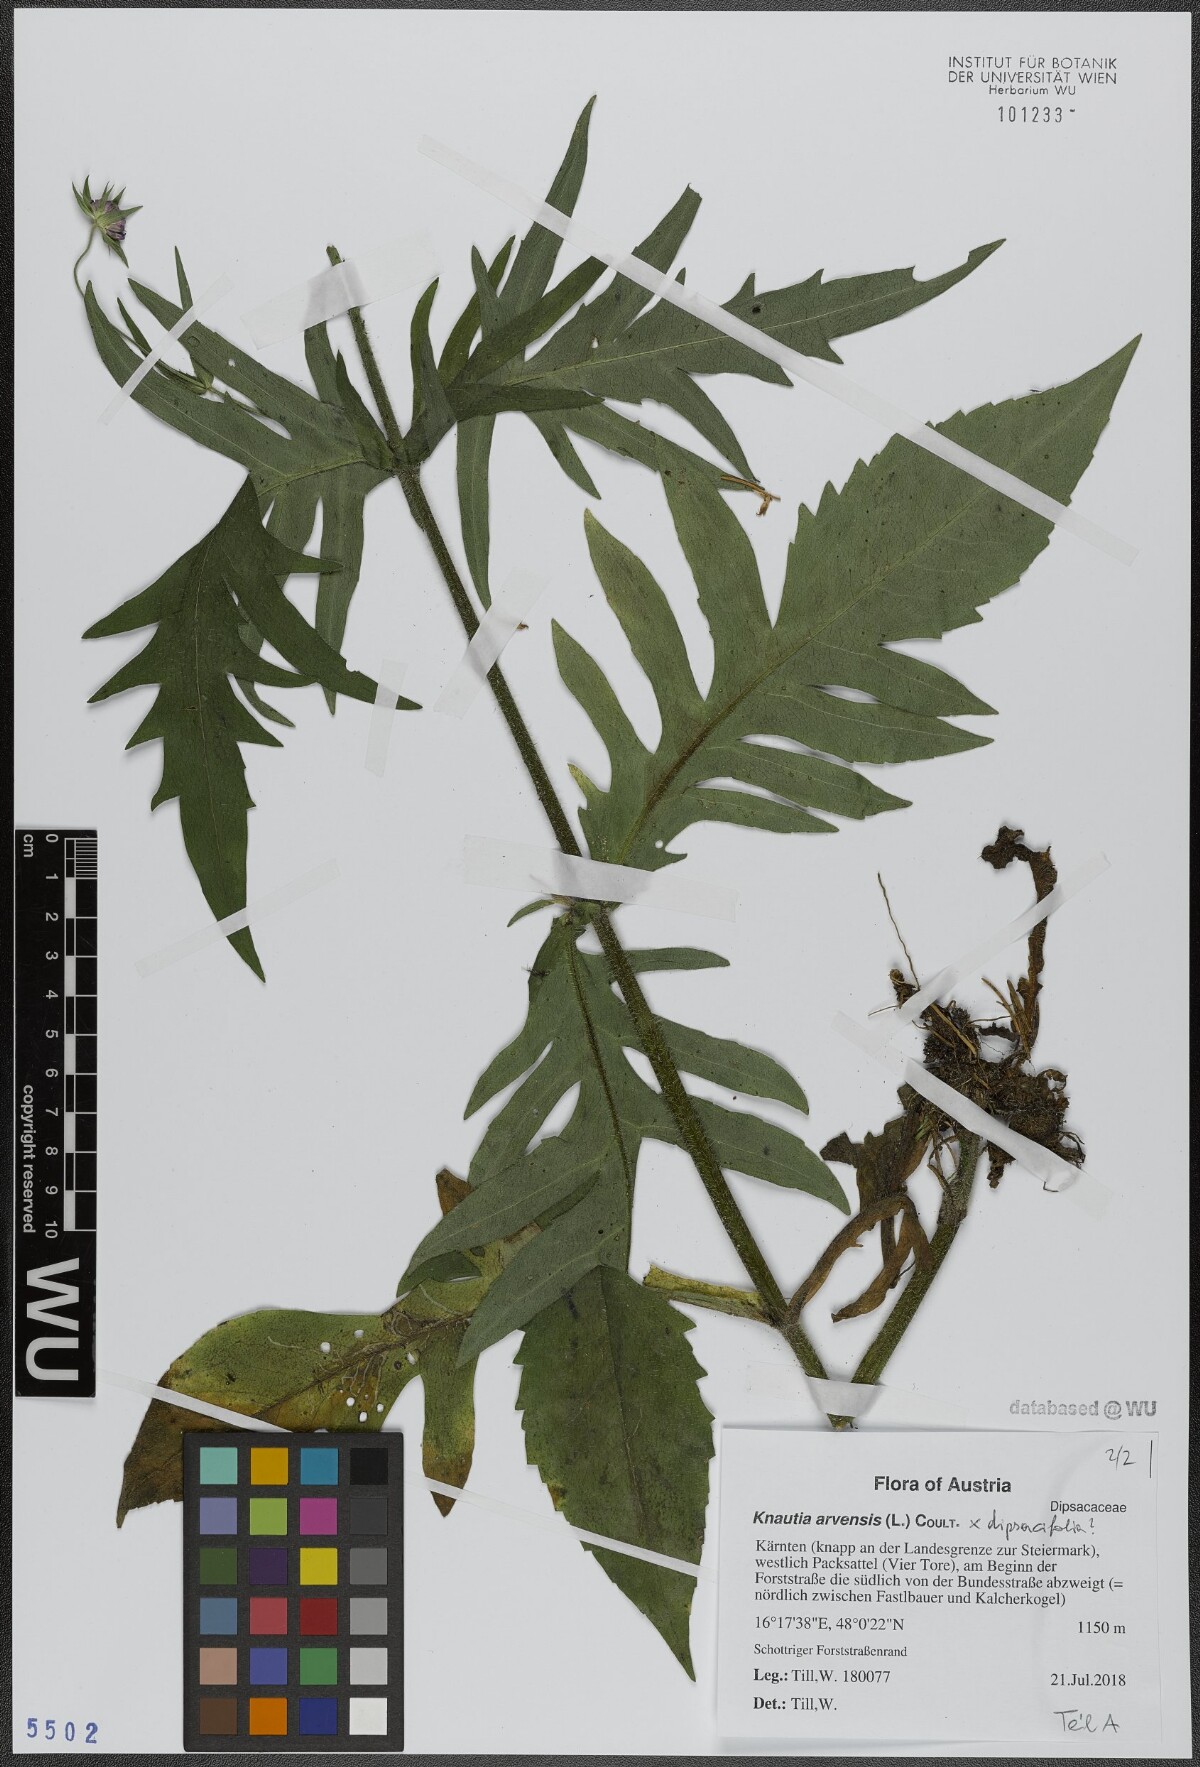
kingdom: Plantae
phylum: Tracheophyta
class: Magnoliopsida
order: Dipsacales
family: Caprifoliaceae
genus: Knautia
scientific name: Knautia arvensis
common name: Field scabiosa
